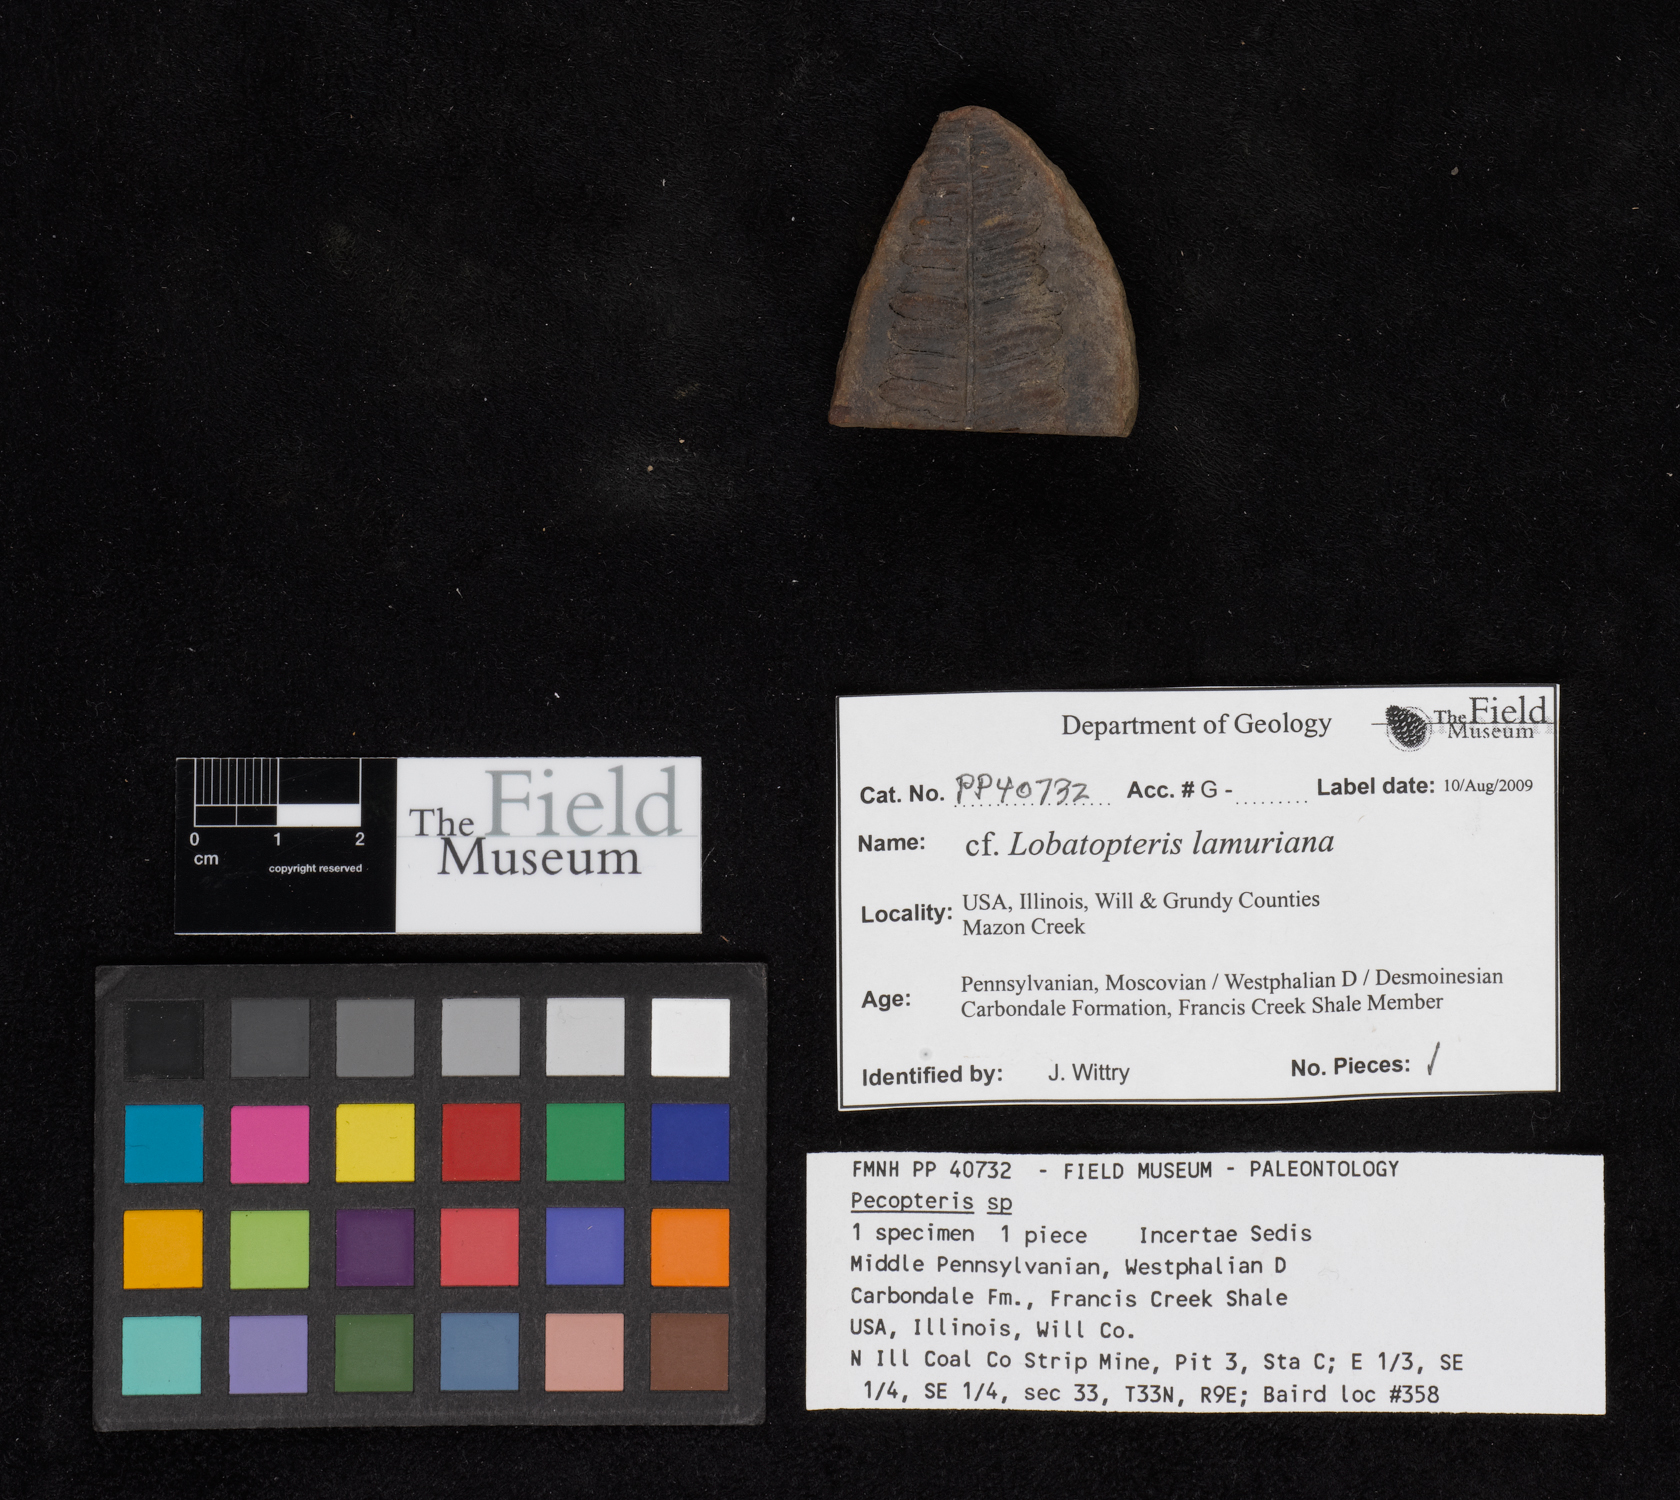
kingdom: Plantae
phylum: Tracheophyta
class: Polypodiopsida
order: Marattiales
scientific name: Marattiales
